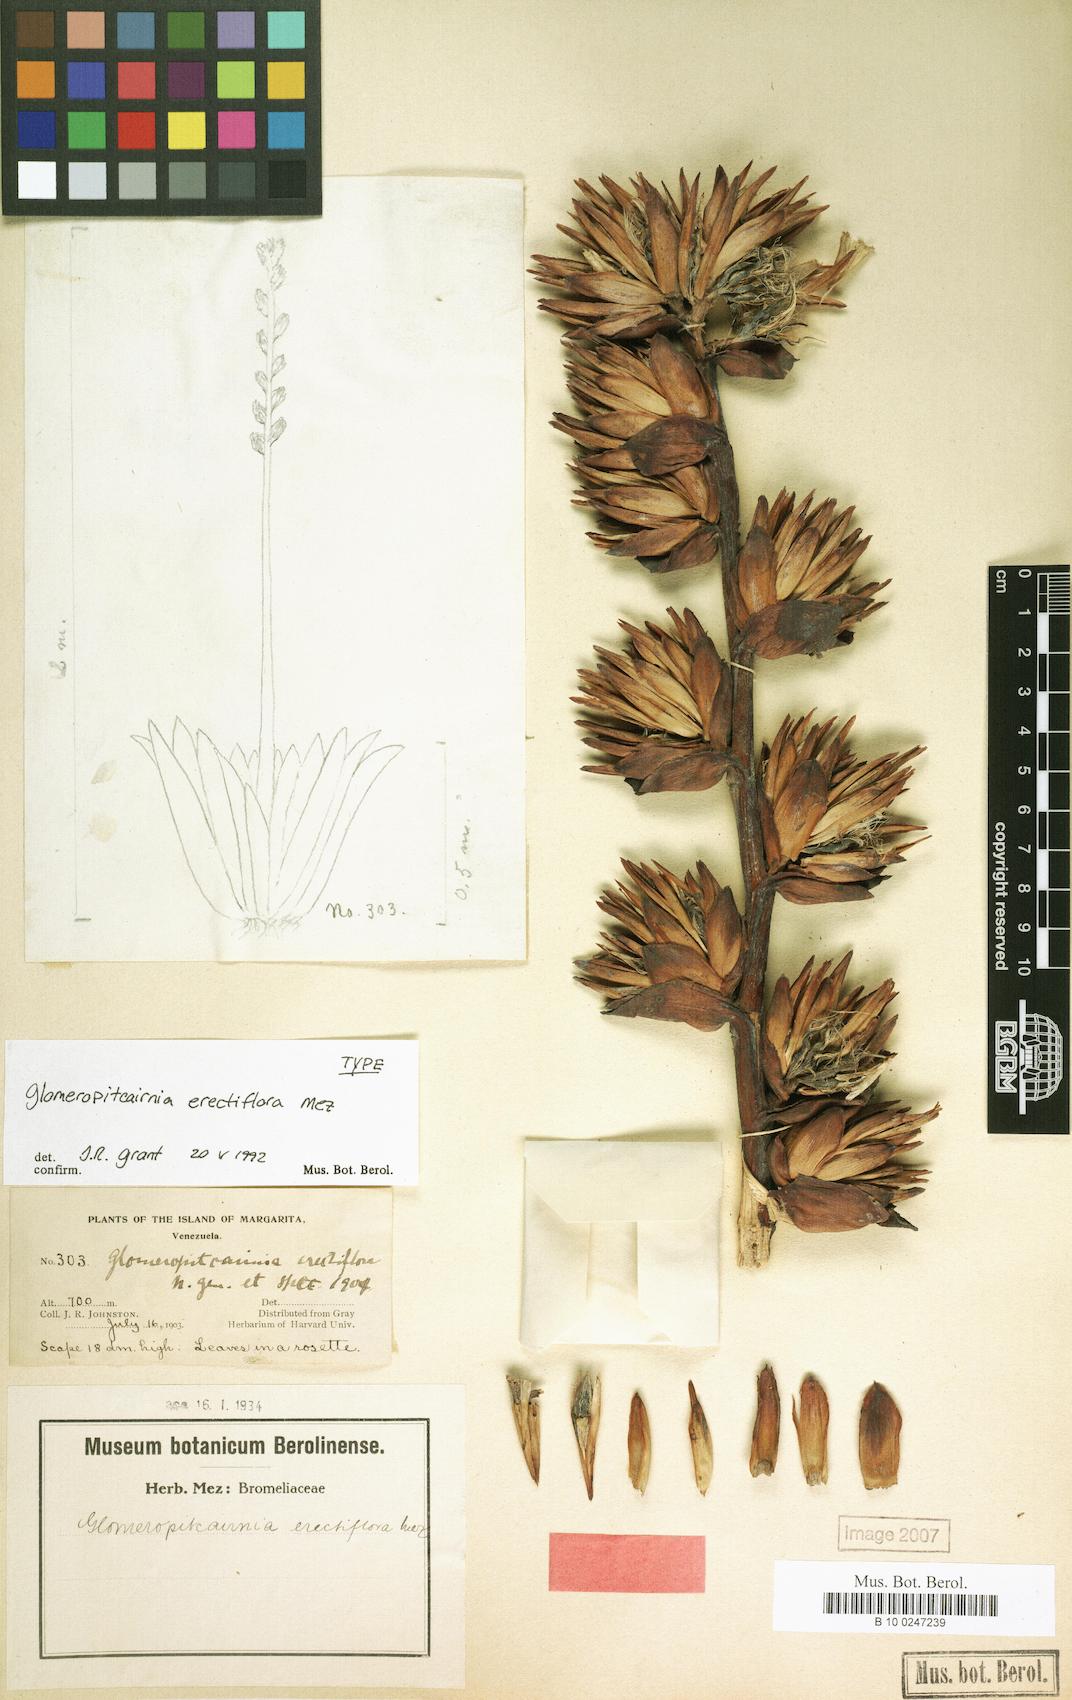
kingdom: Plantae
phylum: Tracheophyta
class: Liliopsida
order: Poales
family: Bromeliaceae
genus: Glomeropitcairnia
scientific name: Glomeropitcairnia erectiflora
